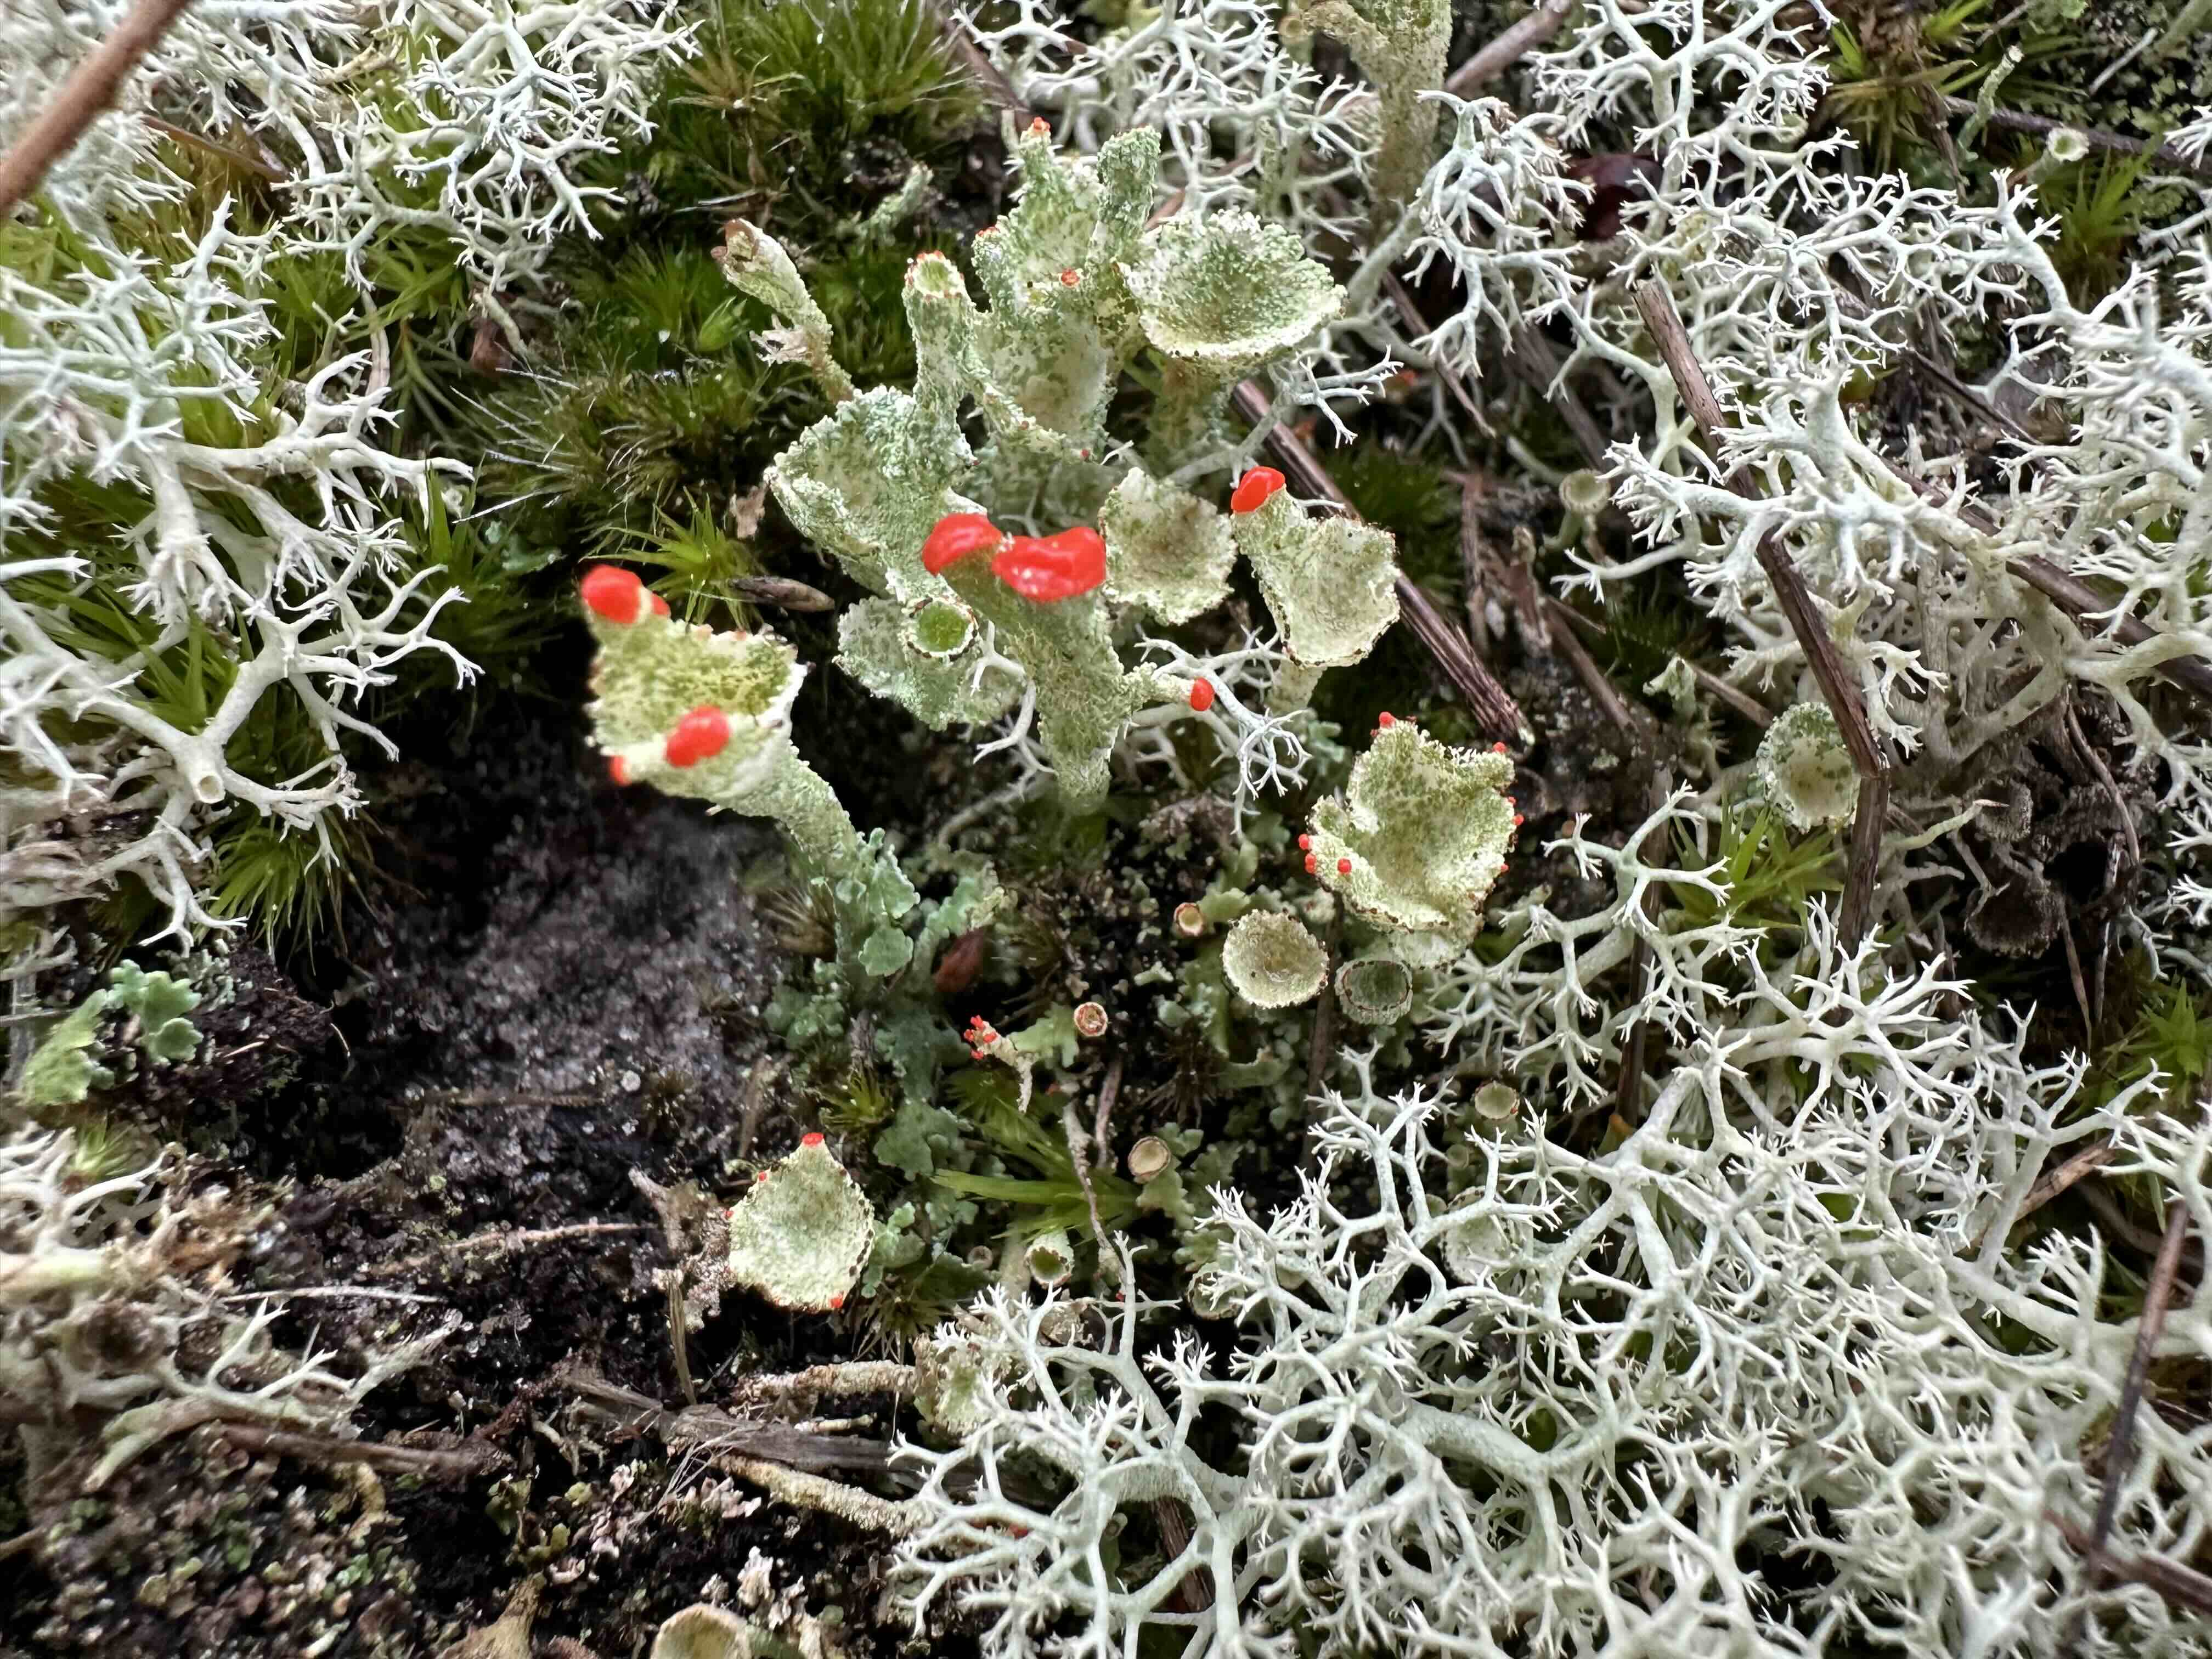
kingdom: Fungi
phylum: Ascomycota
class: Lecanoromycetes
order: Lecanorales
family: Cladoniaceae
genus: Cladonia
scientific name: Cladonia diversa
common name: rød bægerlav
